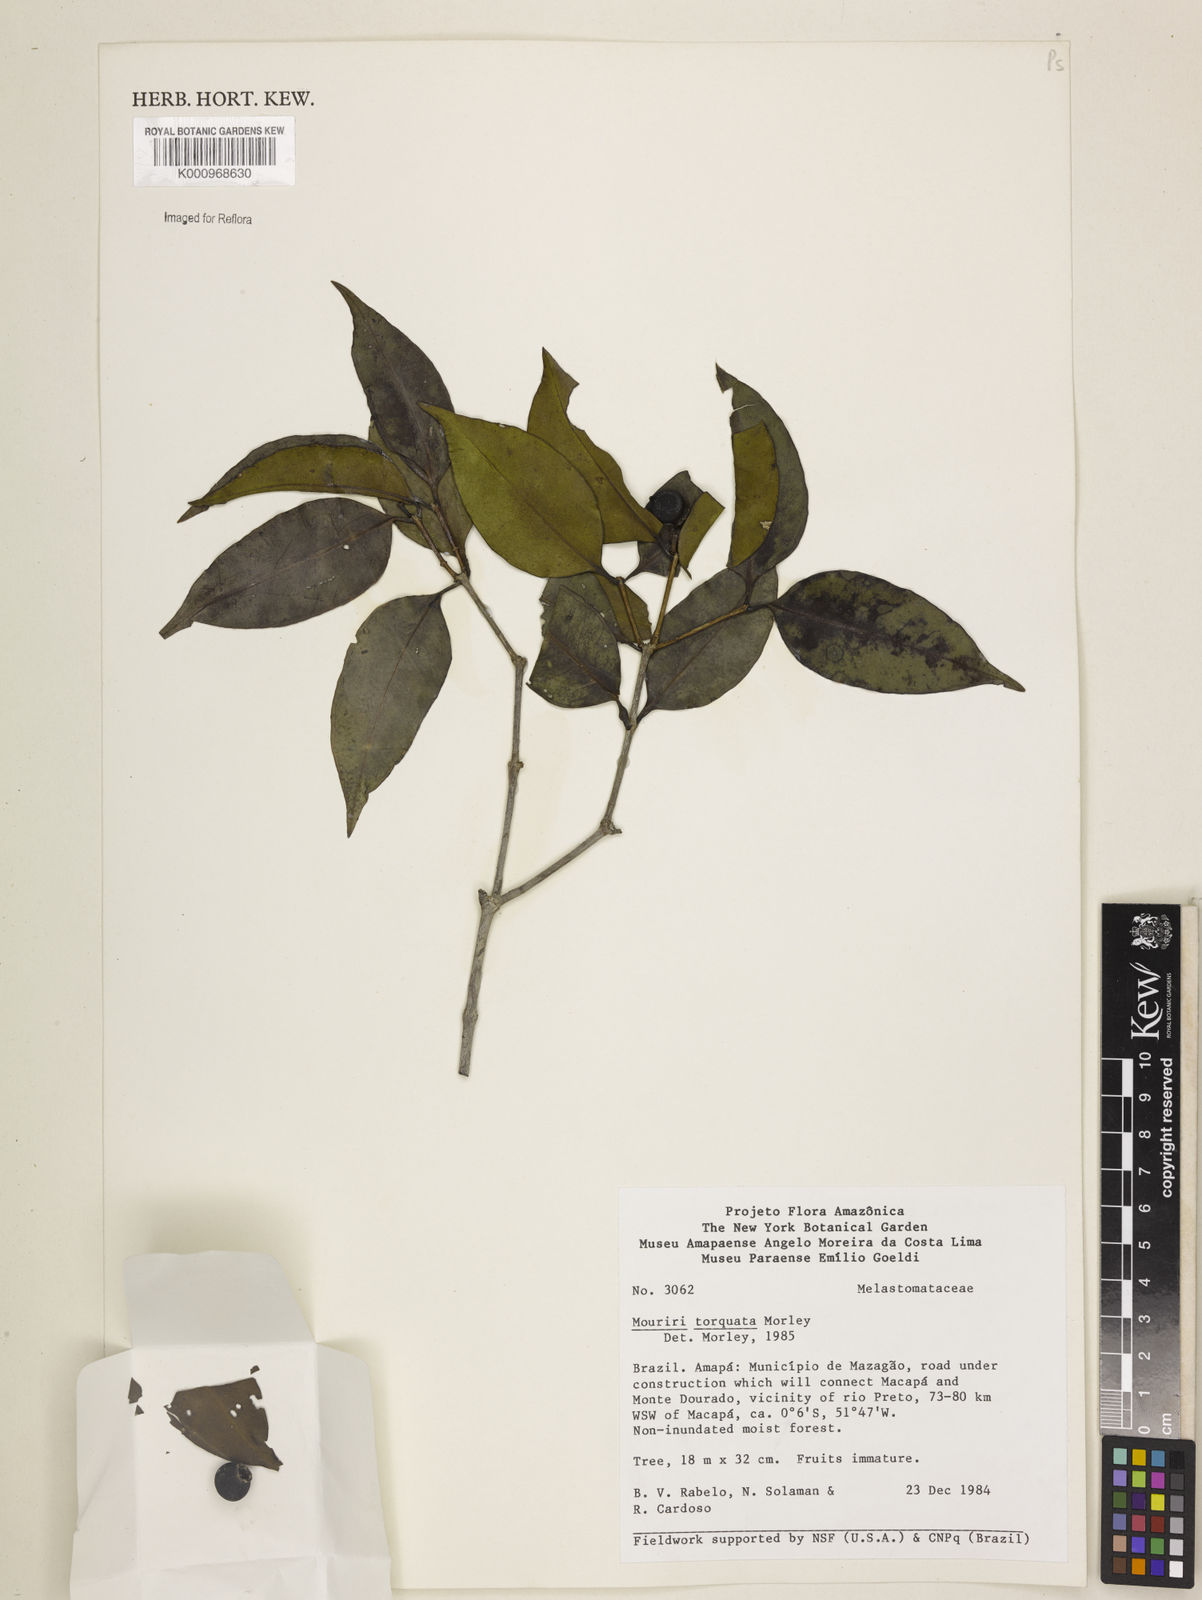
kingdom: Plantae
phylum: Tracheophyta
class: Magnoliopsida
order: Myrtales
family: Melastomataceae
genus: Mouriri
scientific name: Mouriri torquata
